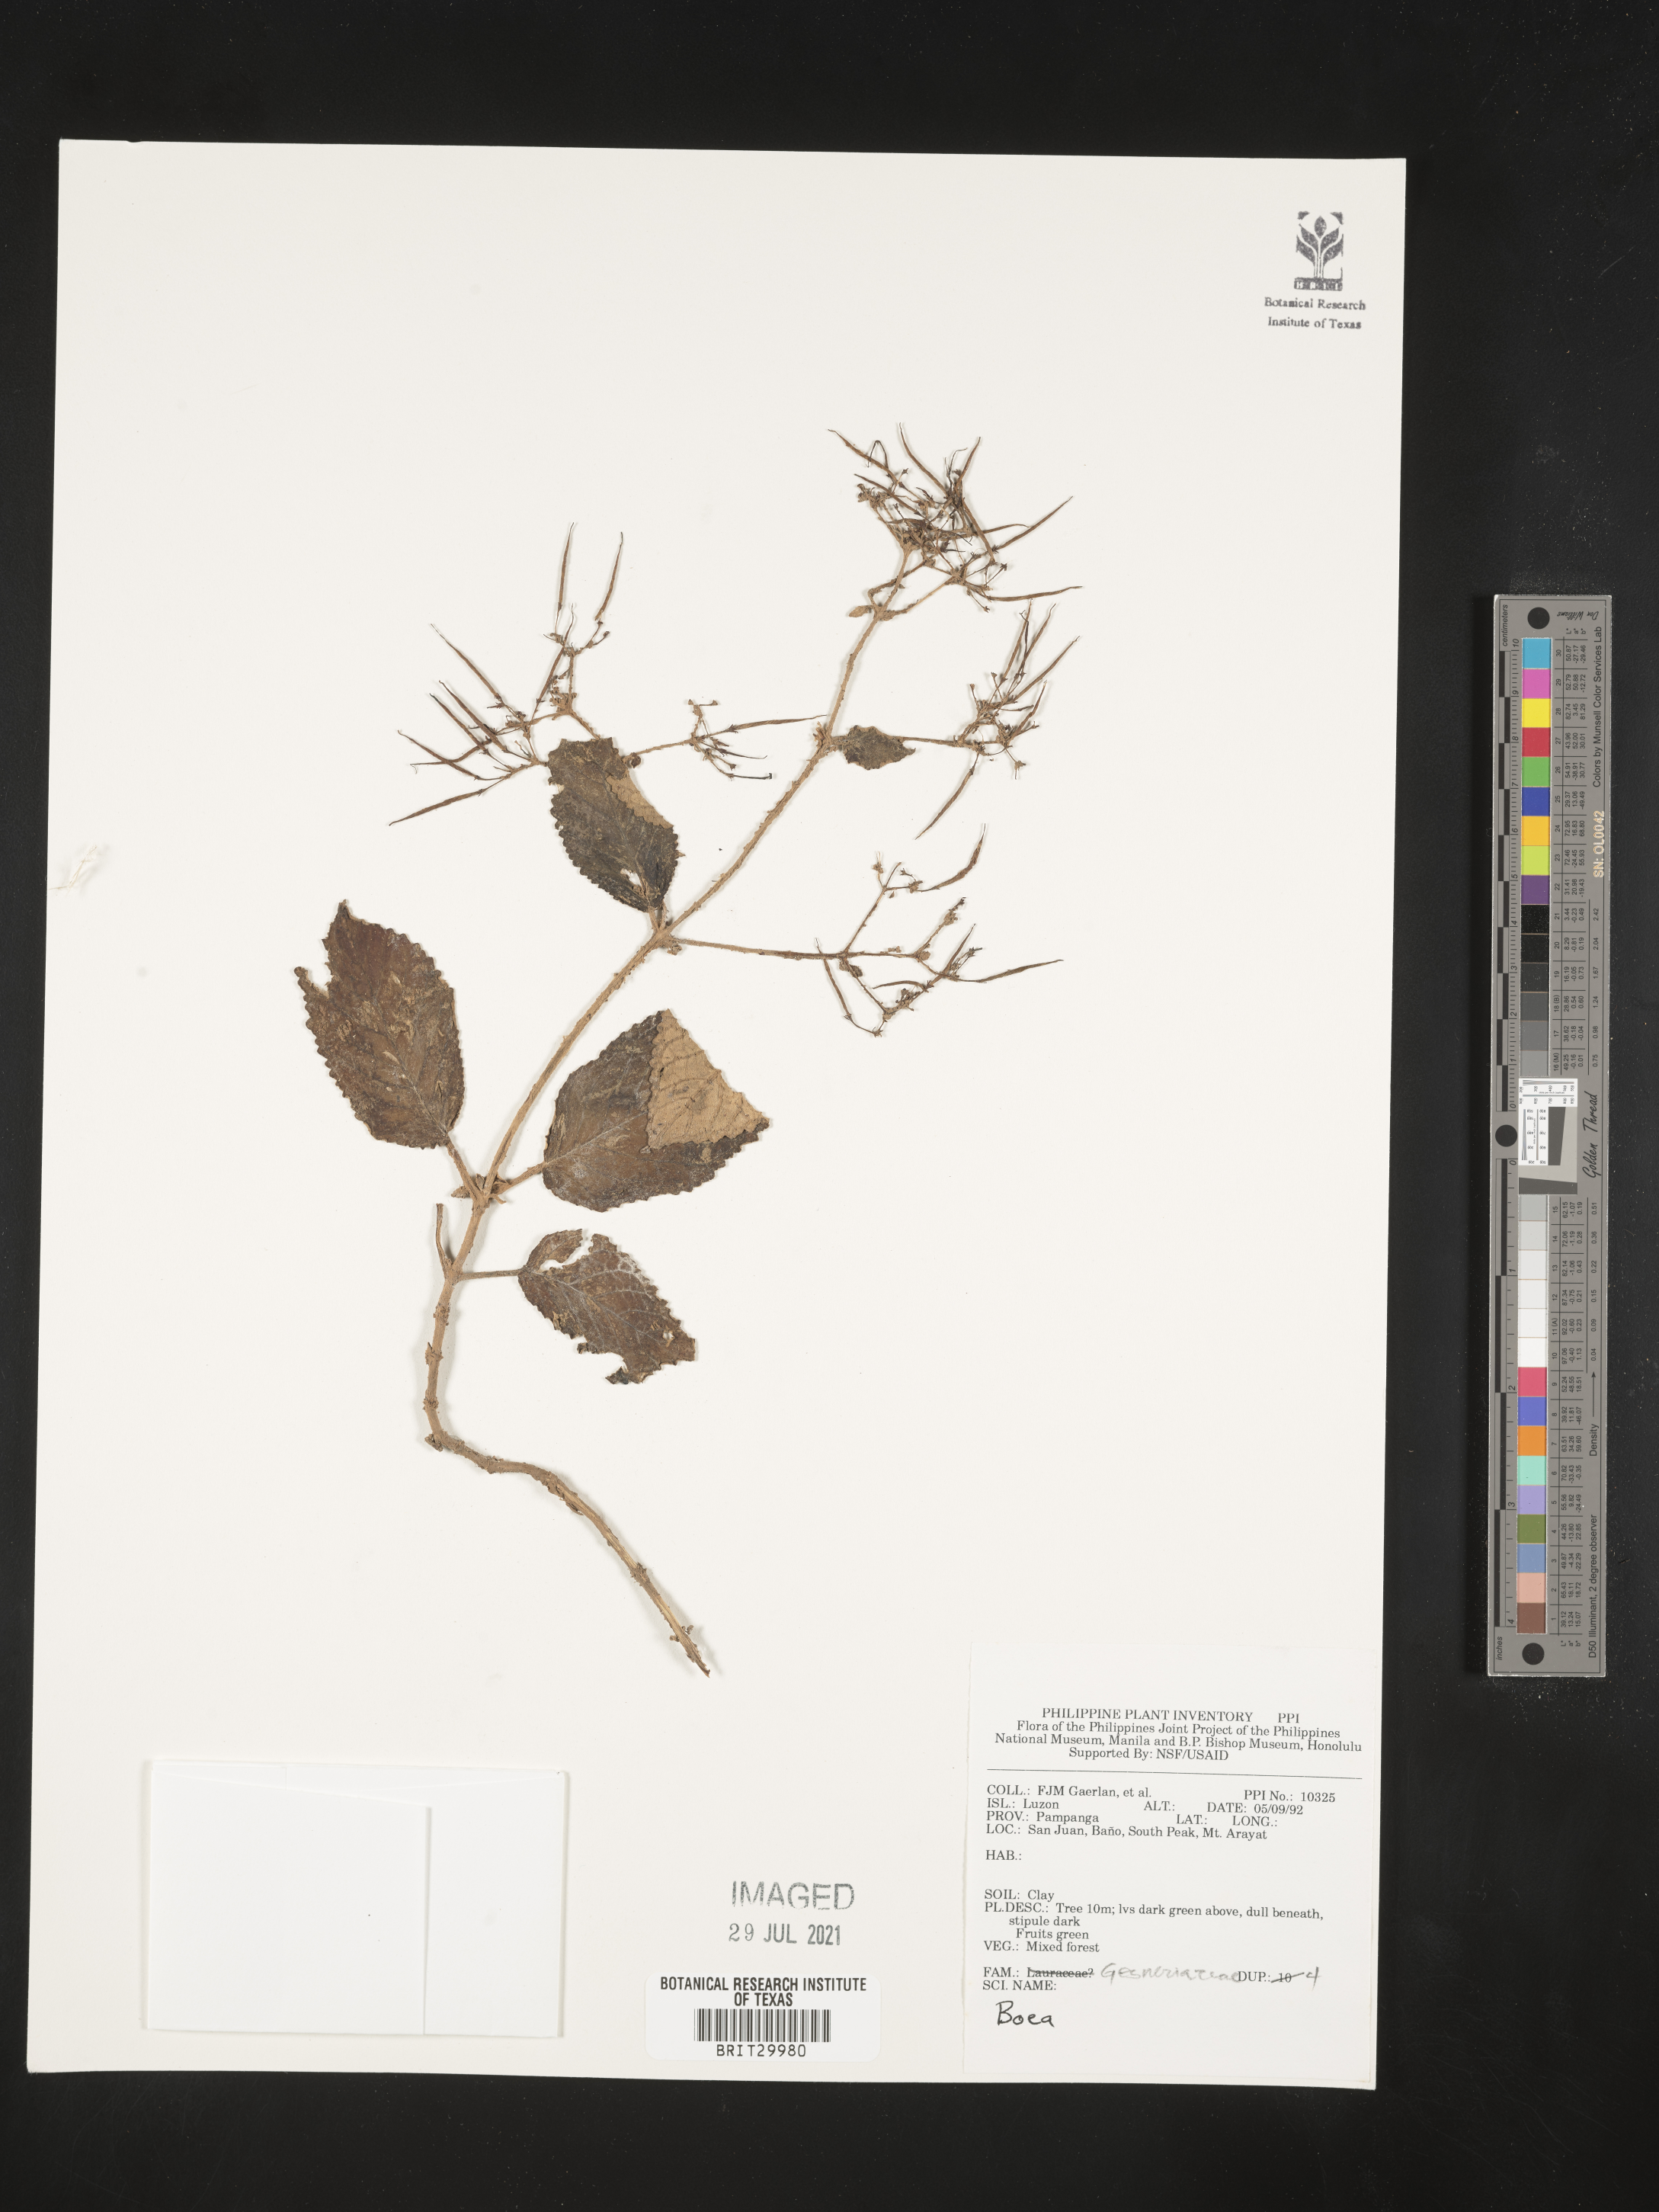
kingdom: Plantae
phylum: Tracheophyta
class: Magnoliopsida
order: Lamiales
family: Gesneriaceae
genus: Boea
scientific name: Boea
